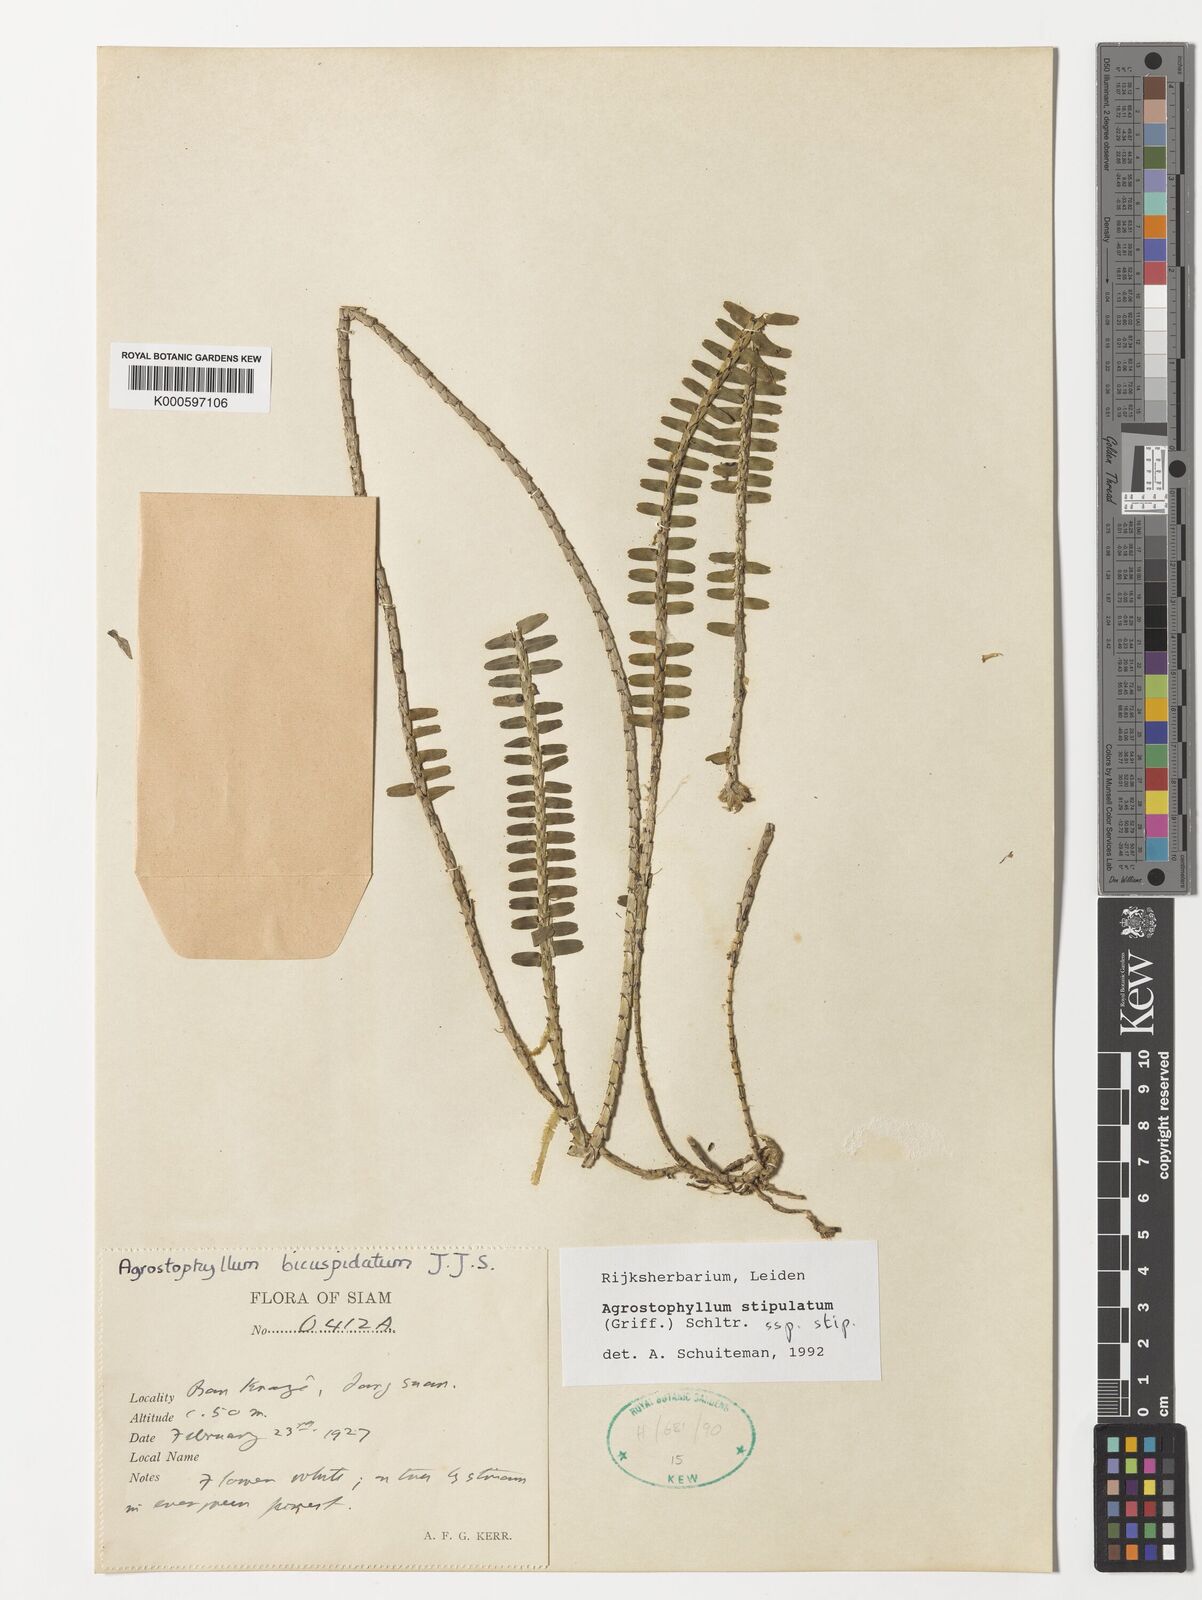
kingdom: Plantae
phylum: Tracheophyta
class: Liliopsida
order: Asparagales
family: Orchidaceae
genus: Agrostophyllum
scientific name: Agrostophyllum stipulatum
